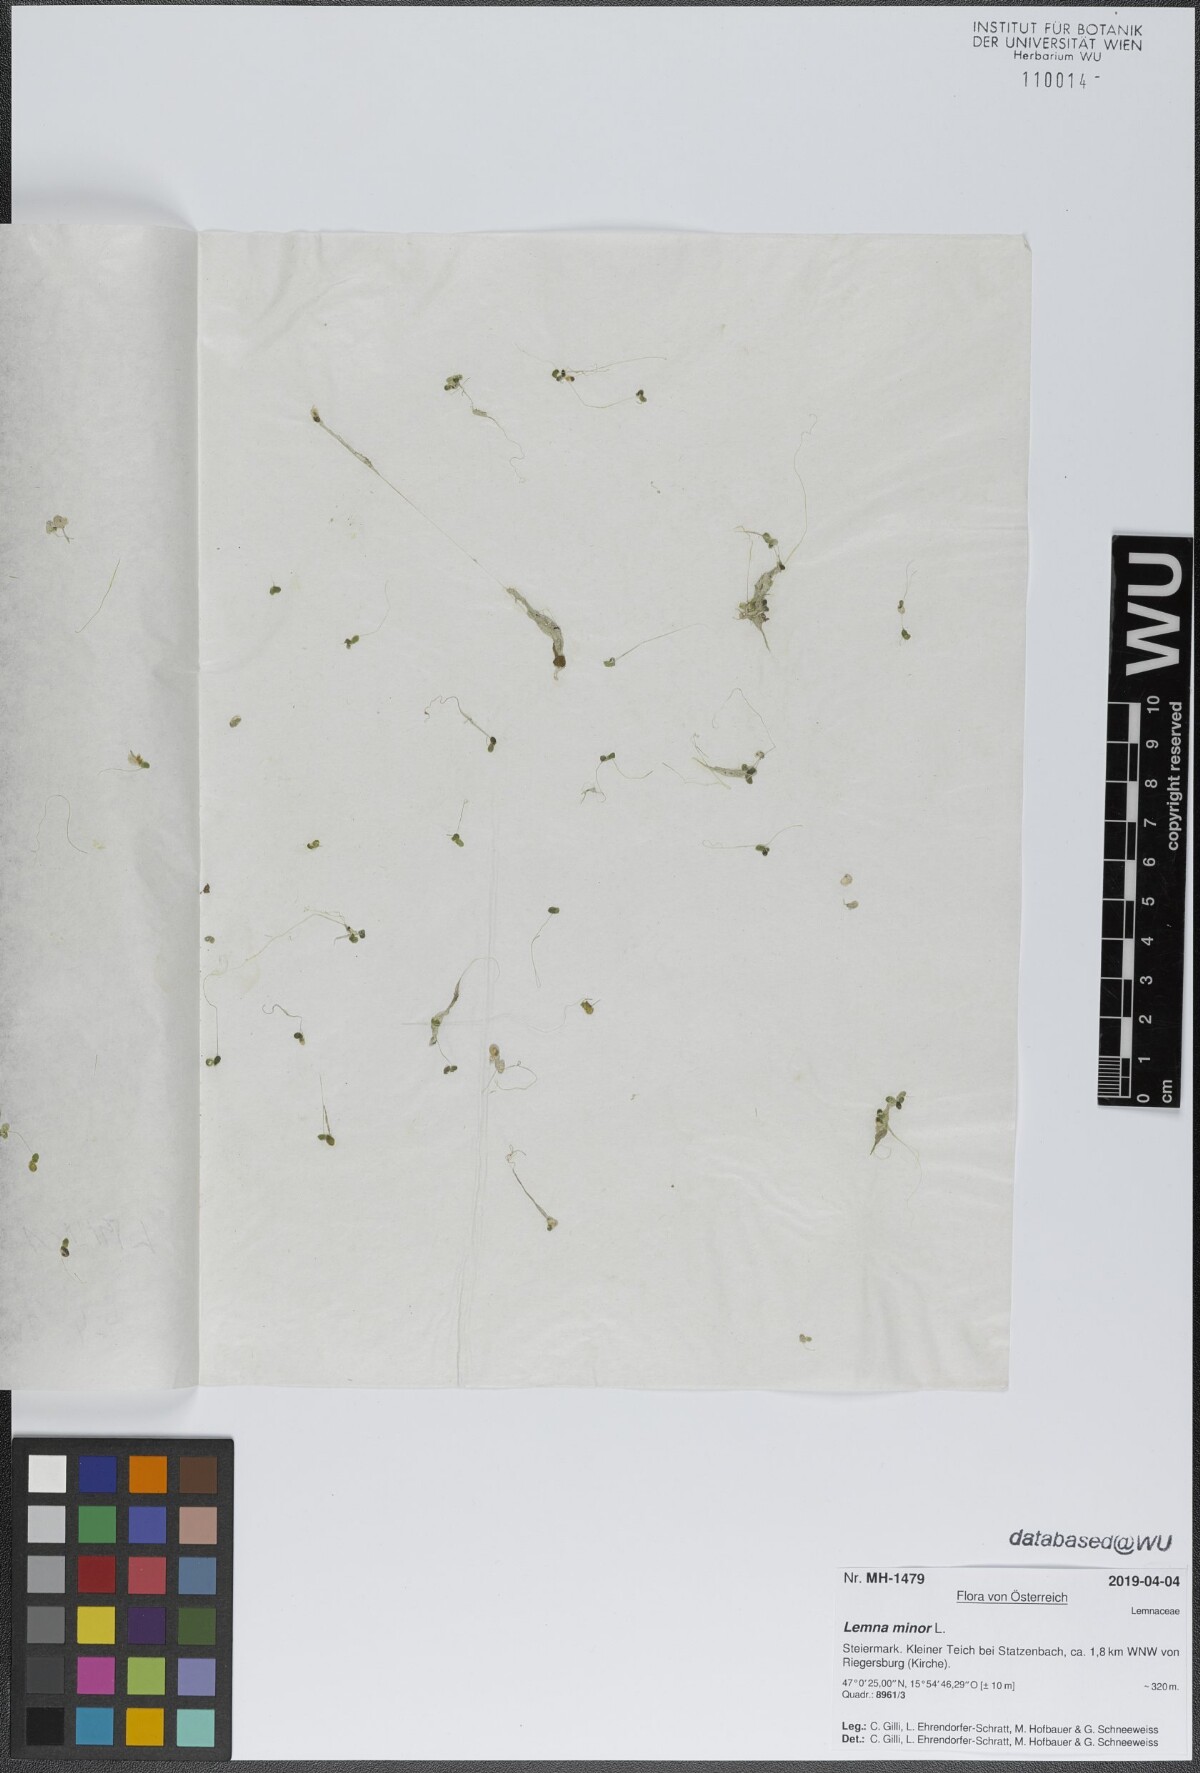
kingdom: Plantae
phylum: Tracheophyta
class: Liliopsida
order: Alismatales
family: Araceae
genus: Lemna
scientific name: Lemna minor
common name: Common duckweed
